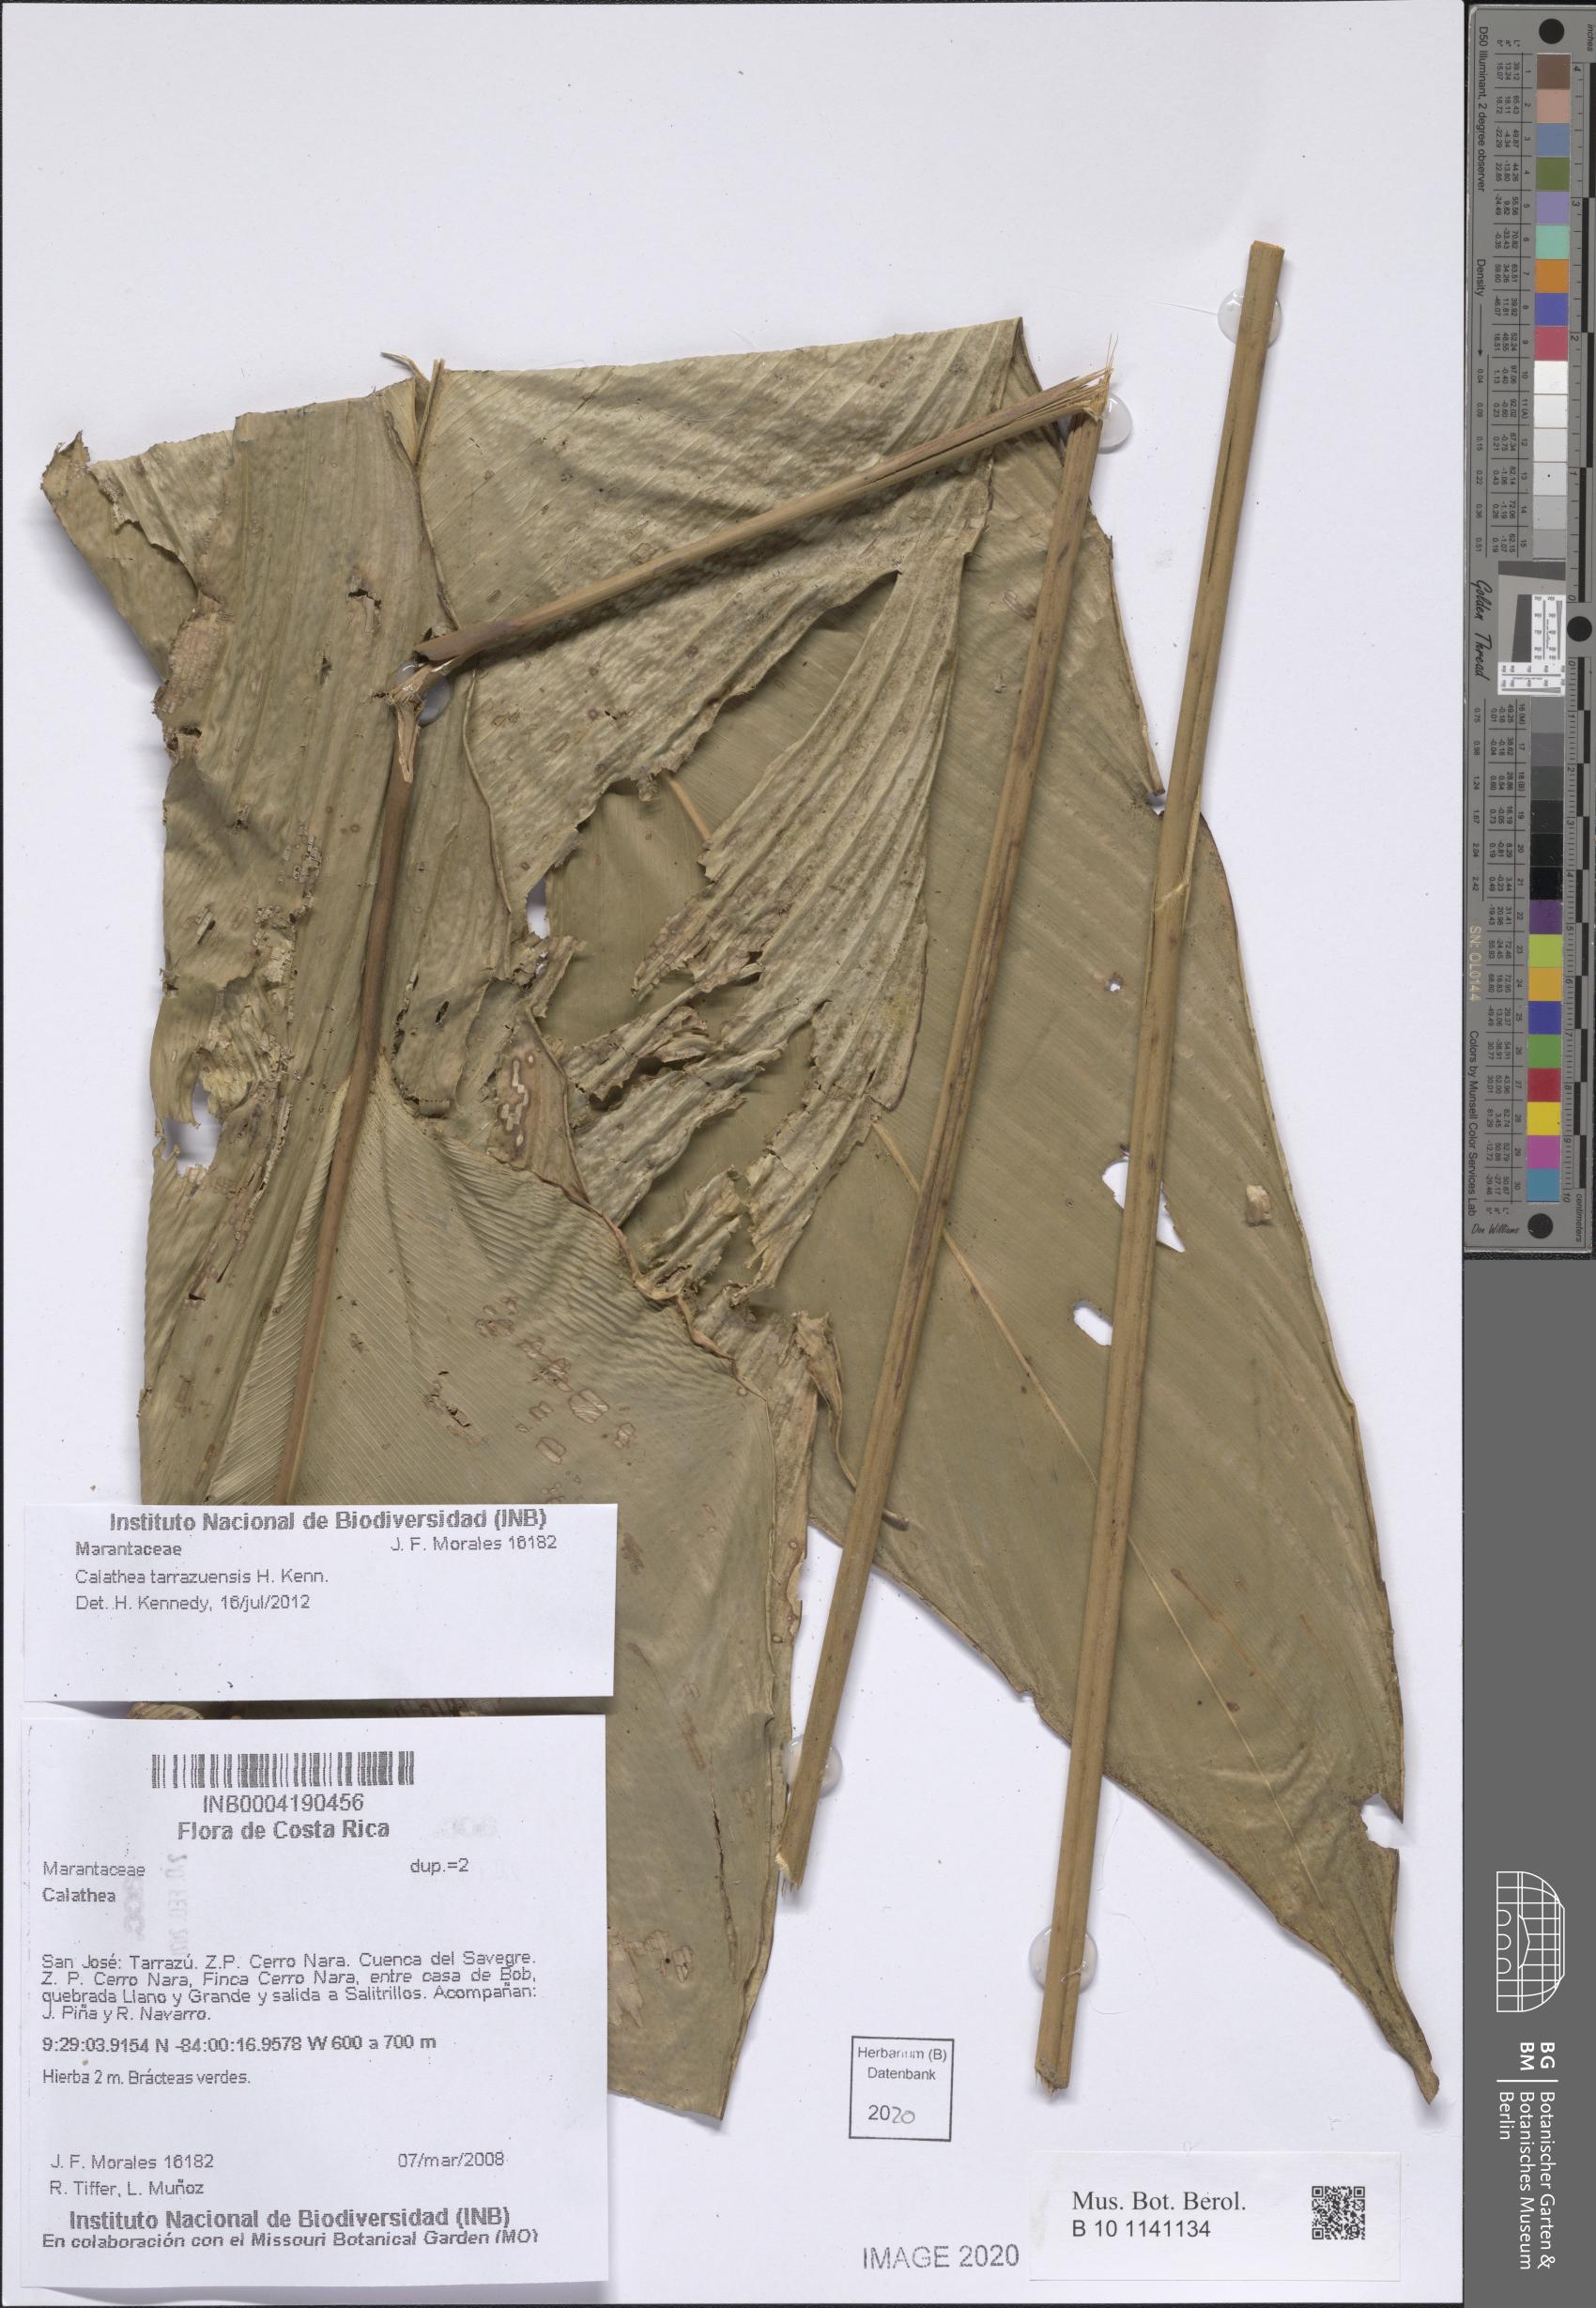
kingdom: Plantae
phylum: Tracheophyta
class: Liliopsida
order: Zingiberales
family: Marantaceae
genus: Calathea
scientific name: Calathea tarrazuensis
